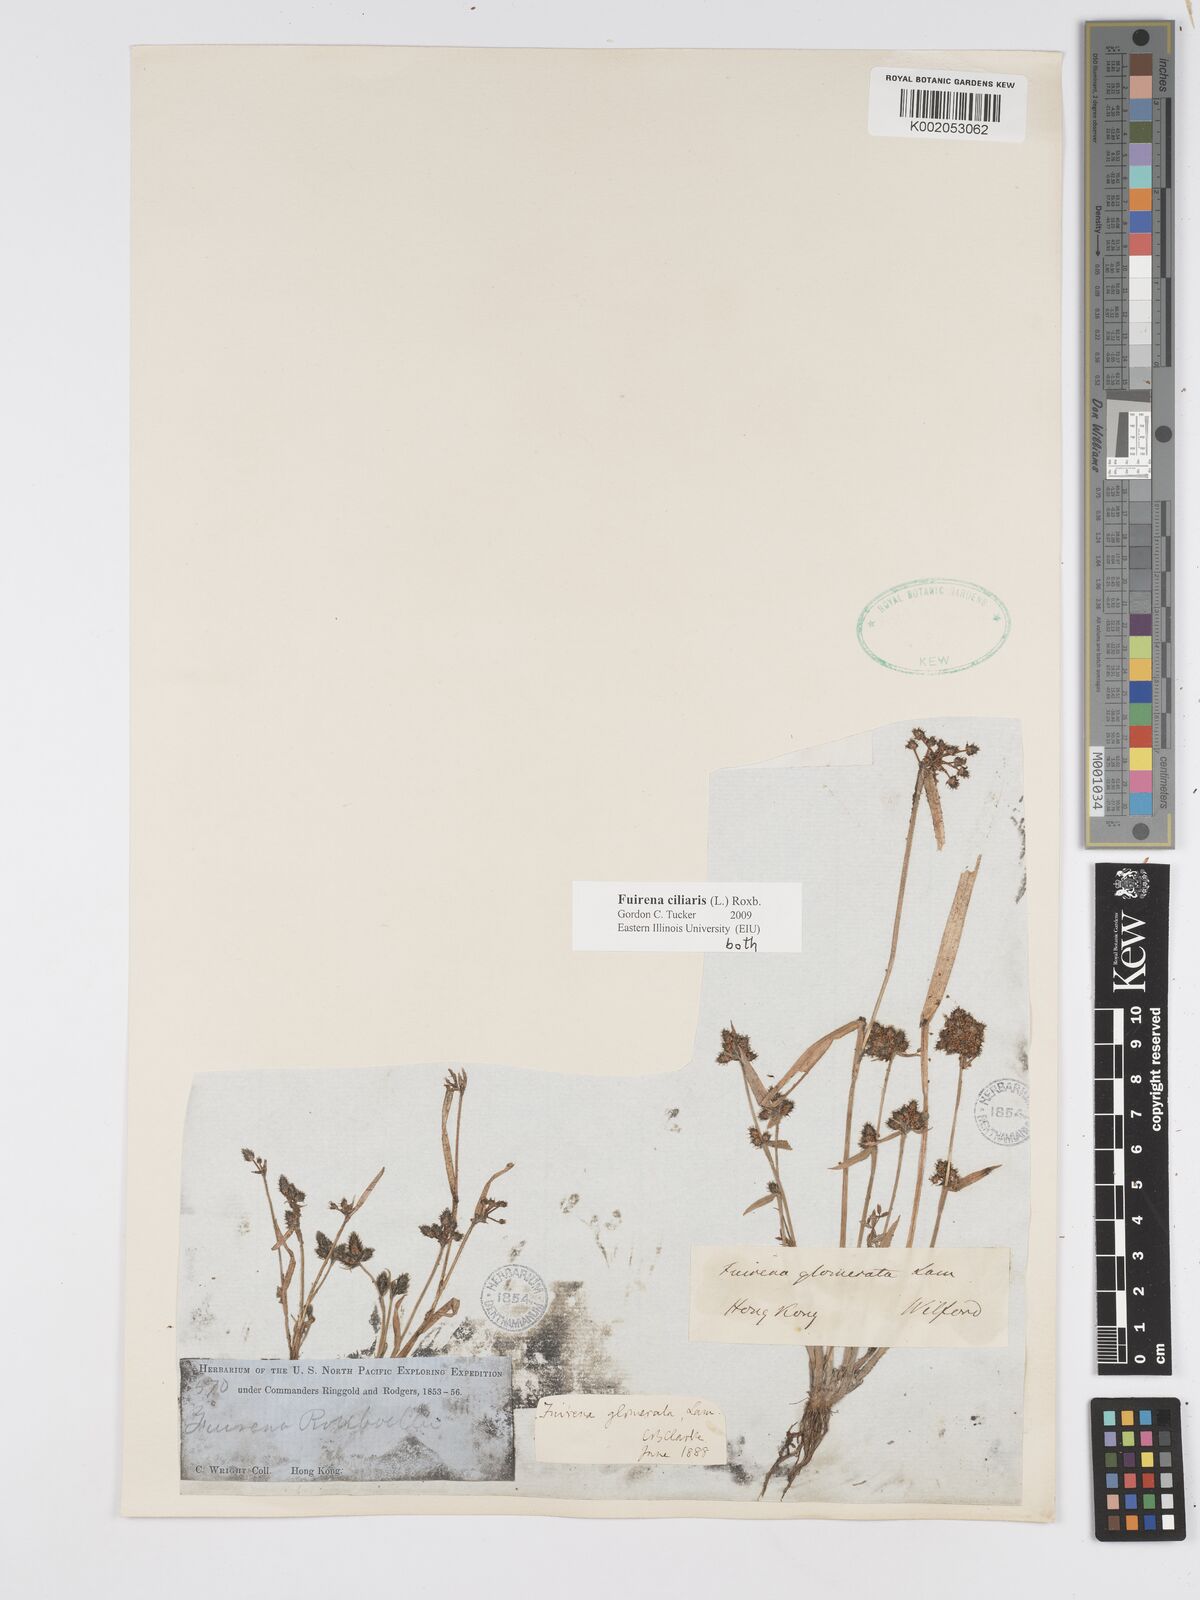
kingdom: Plantae
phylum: Tracheophyta
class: Liliopsida
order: Poales
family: Cyperaceae
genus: Fuirena
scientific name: Fuirena ciliaris
